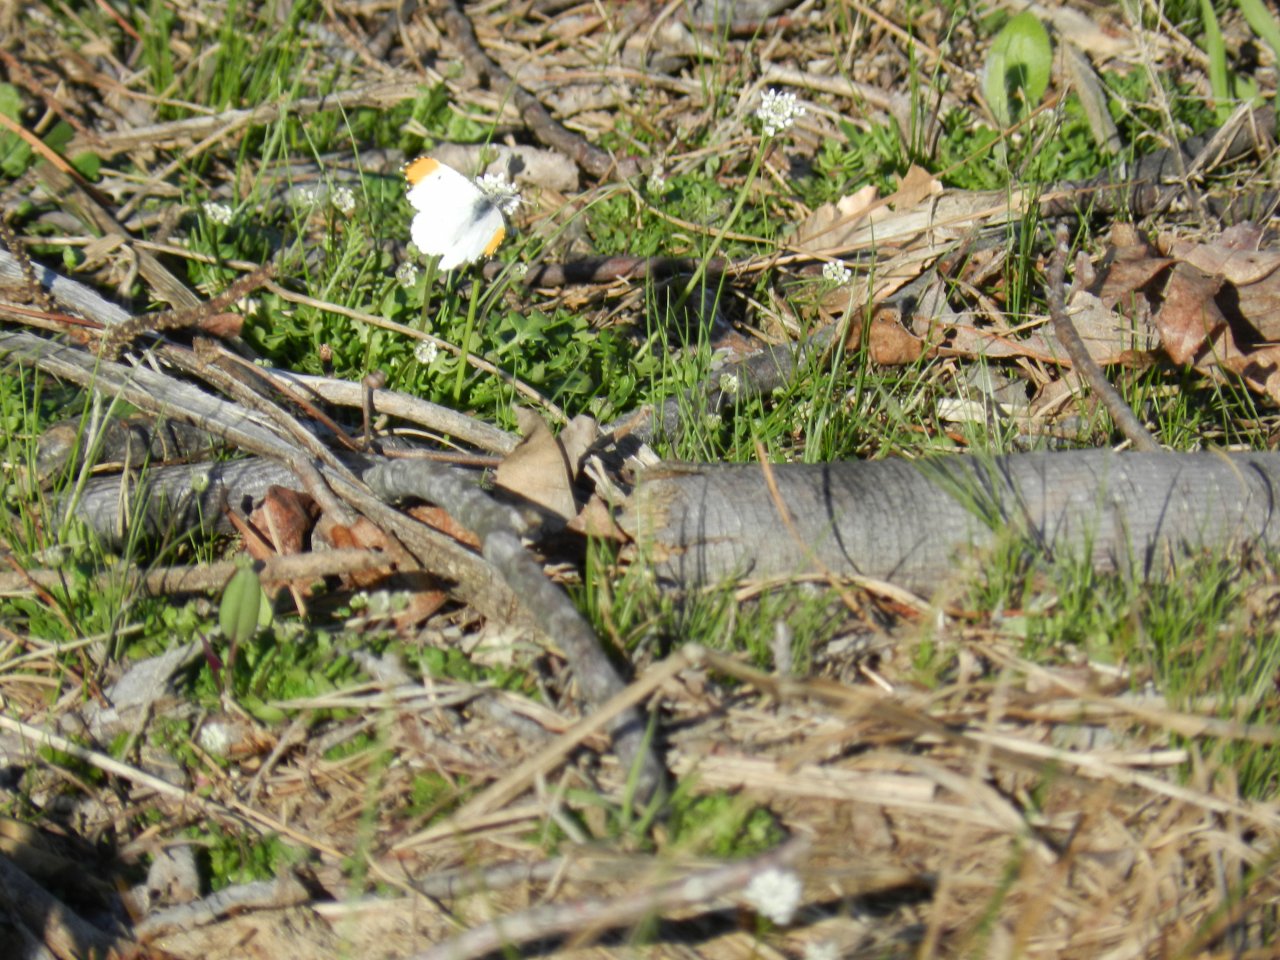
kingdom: Animalia
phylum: Arthropoda
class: Insecta
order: Lepidoptera
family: Pieridae
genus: Anthocharis
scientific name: Anthocharis midea
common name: Falcate Orangetip
